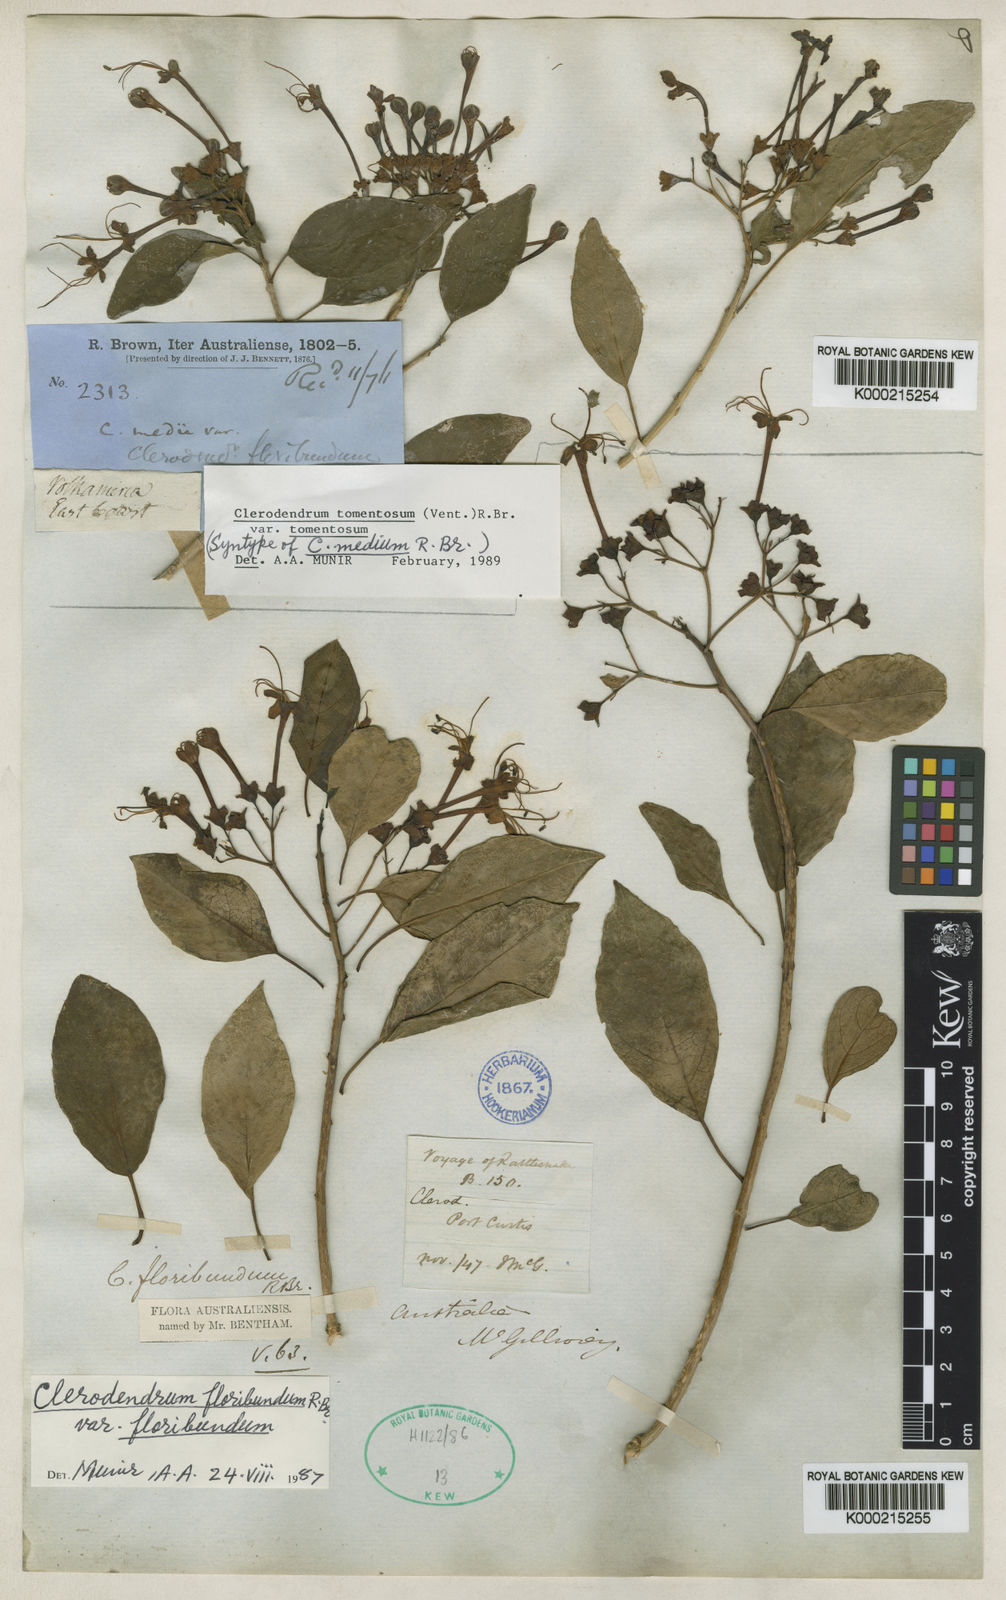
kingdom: Plantae
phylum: Tracheophyta
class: Magnoliopsida
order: Lamiales
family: Lamiaceae
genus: Clerodendrum
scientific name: Clerodendrum floribundum
